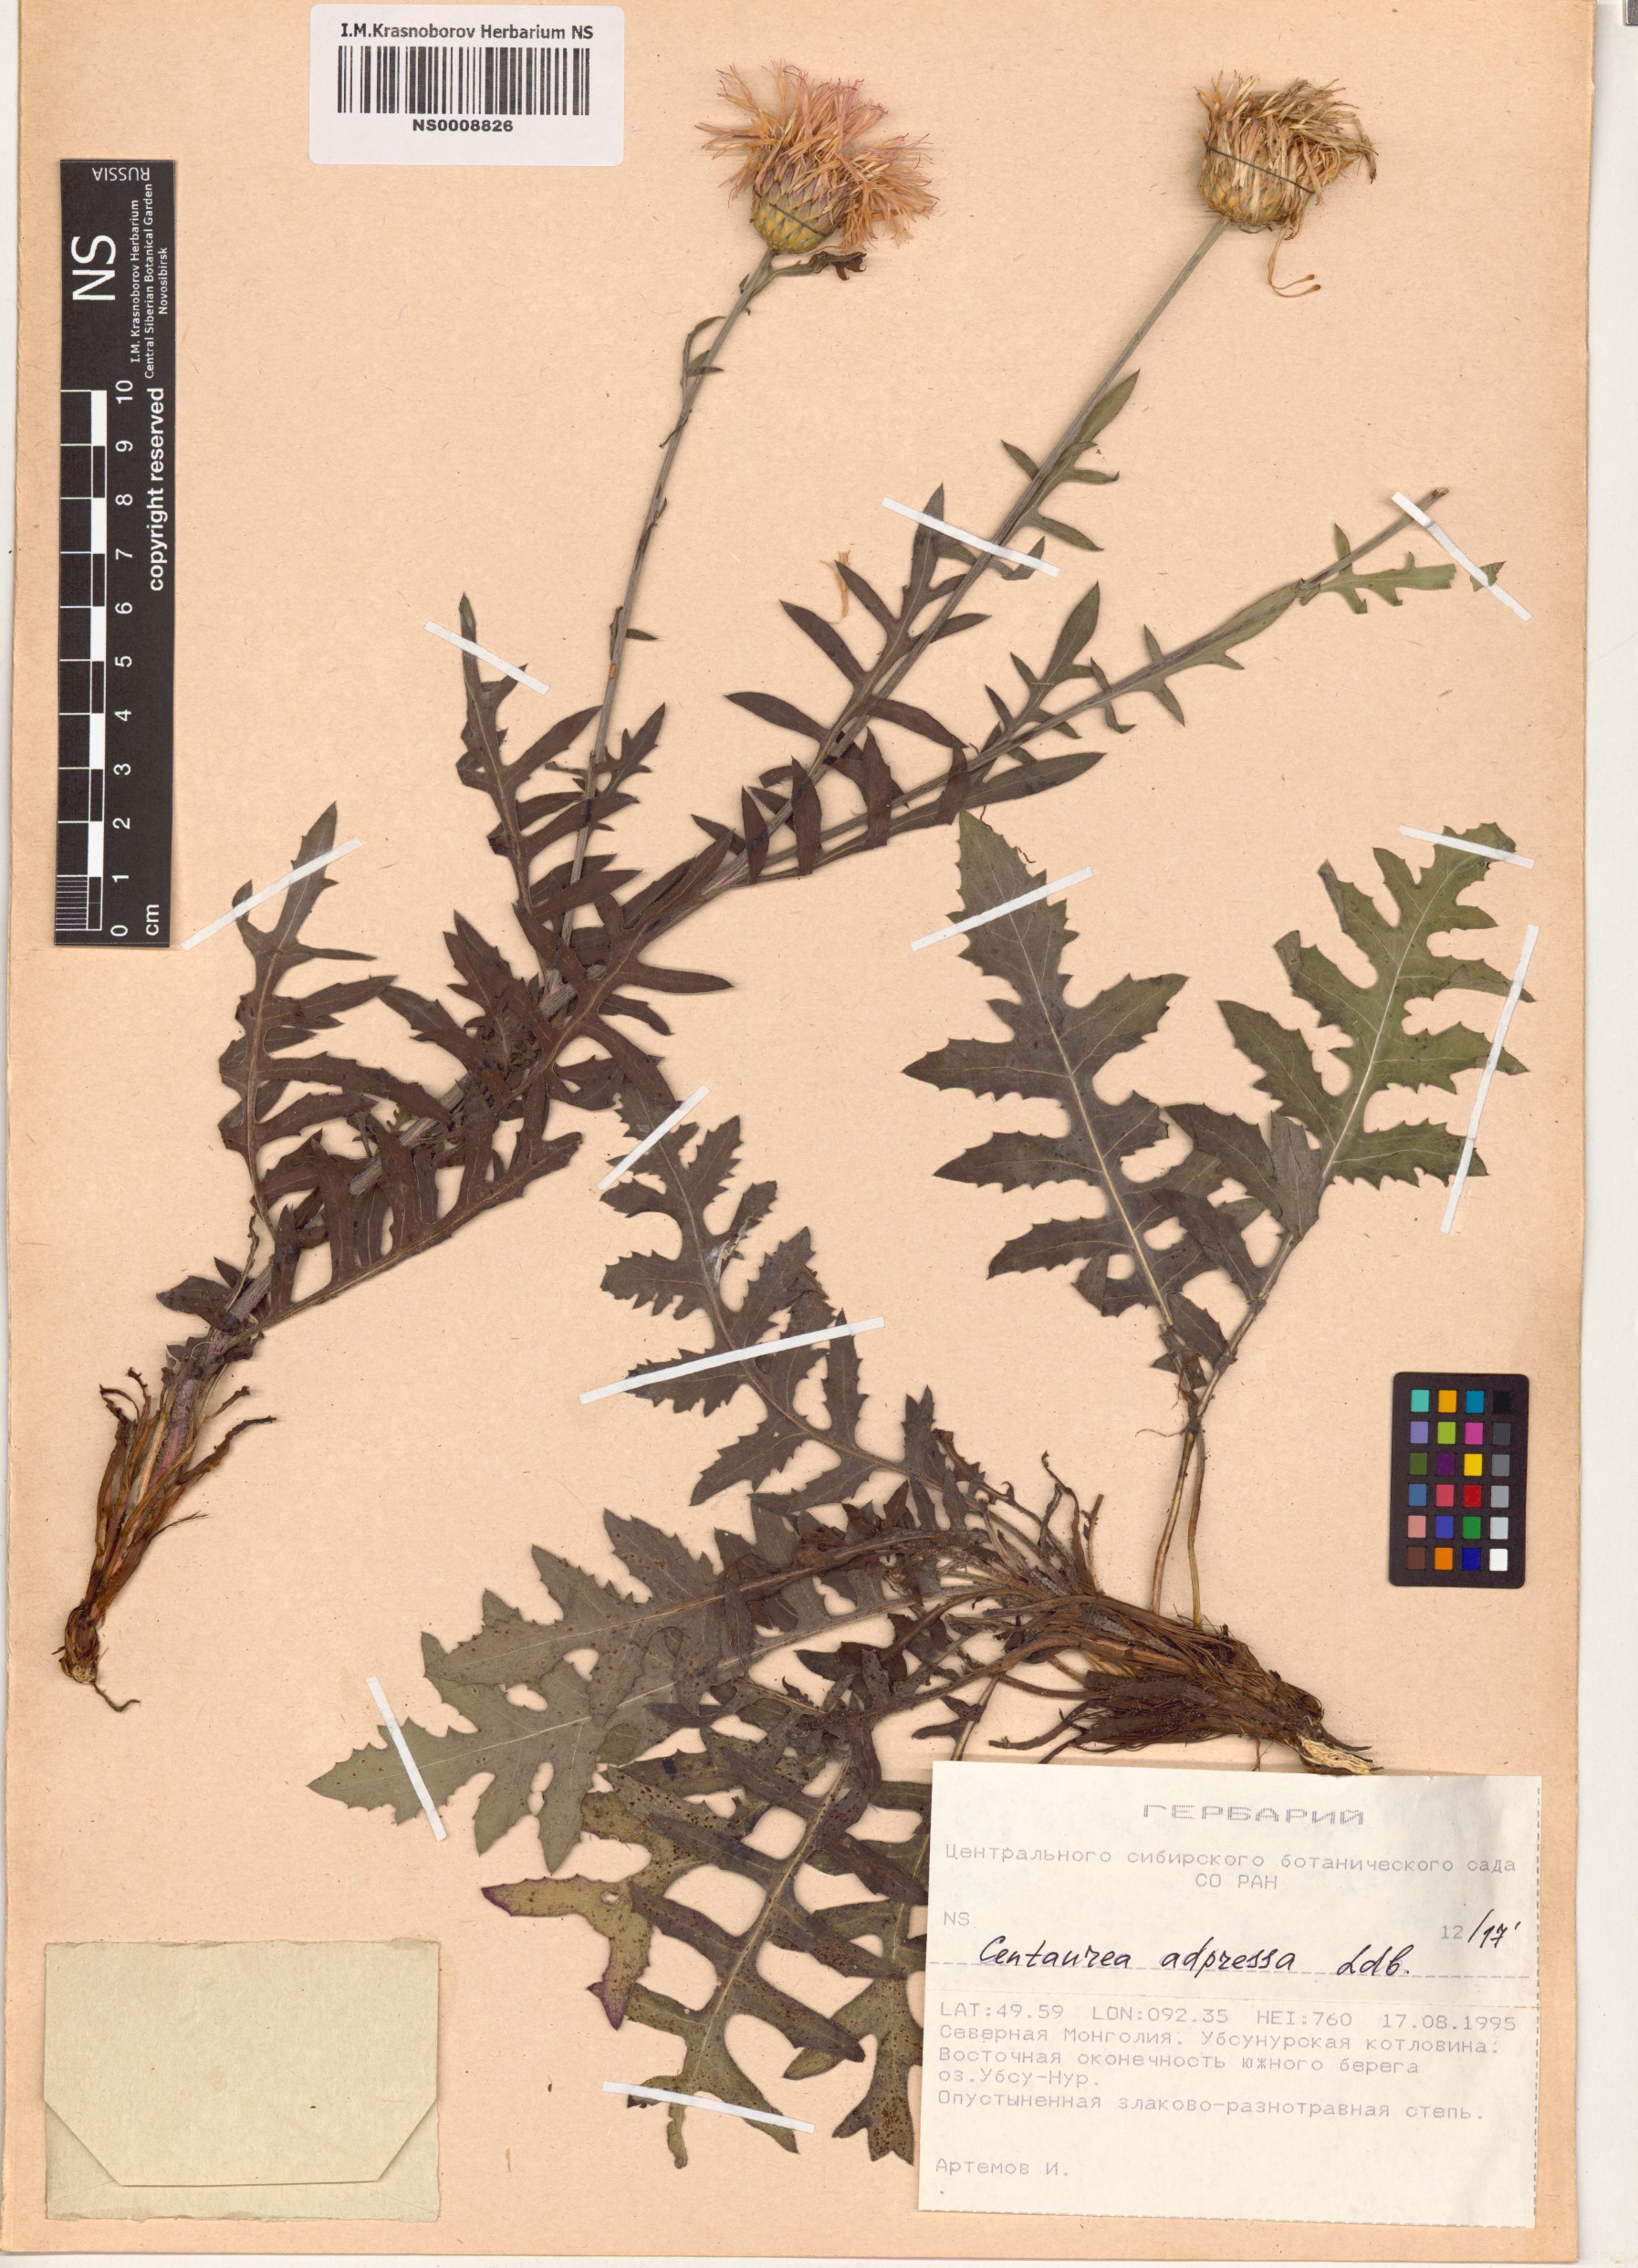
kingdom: Plantae
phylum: Tracheophyta
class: Magnoliopsida
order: Asterales
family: Asteraceae
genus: Centaurea
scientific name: Centaurea adpressa
